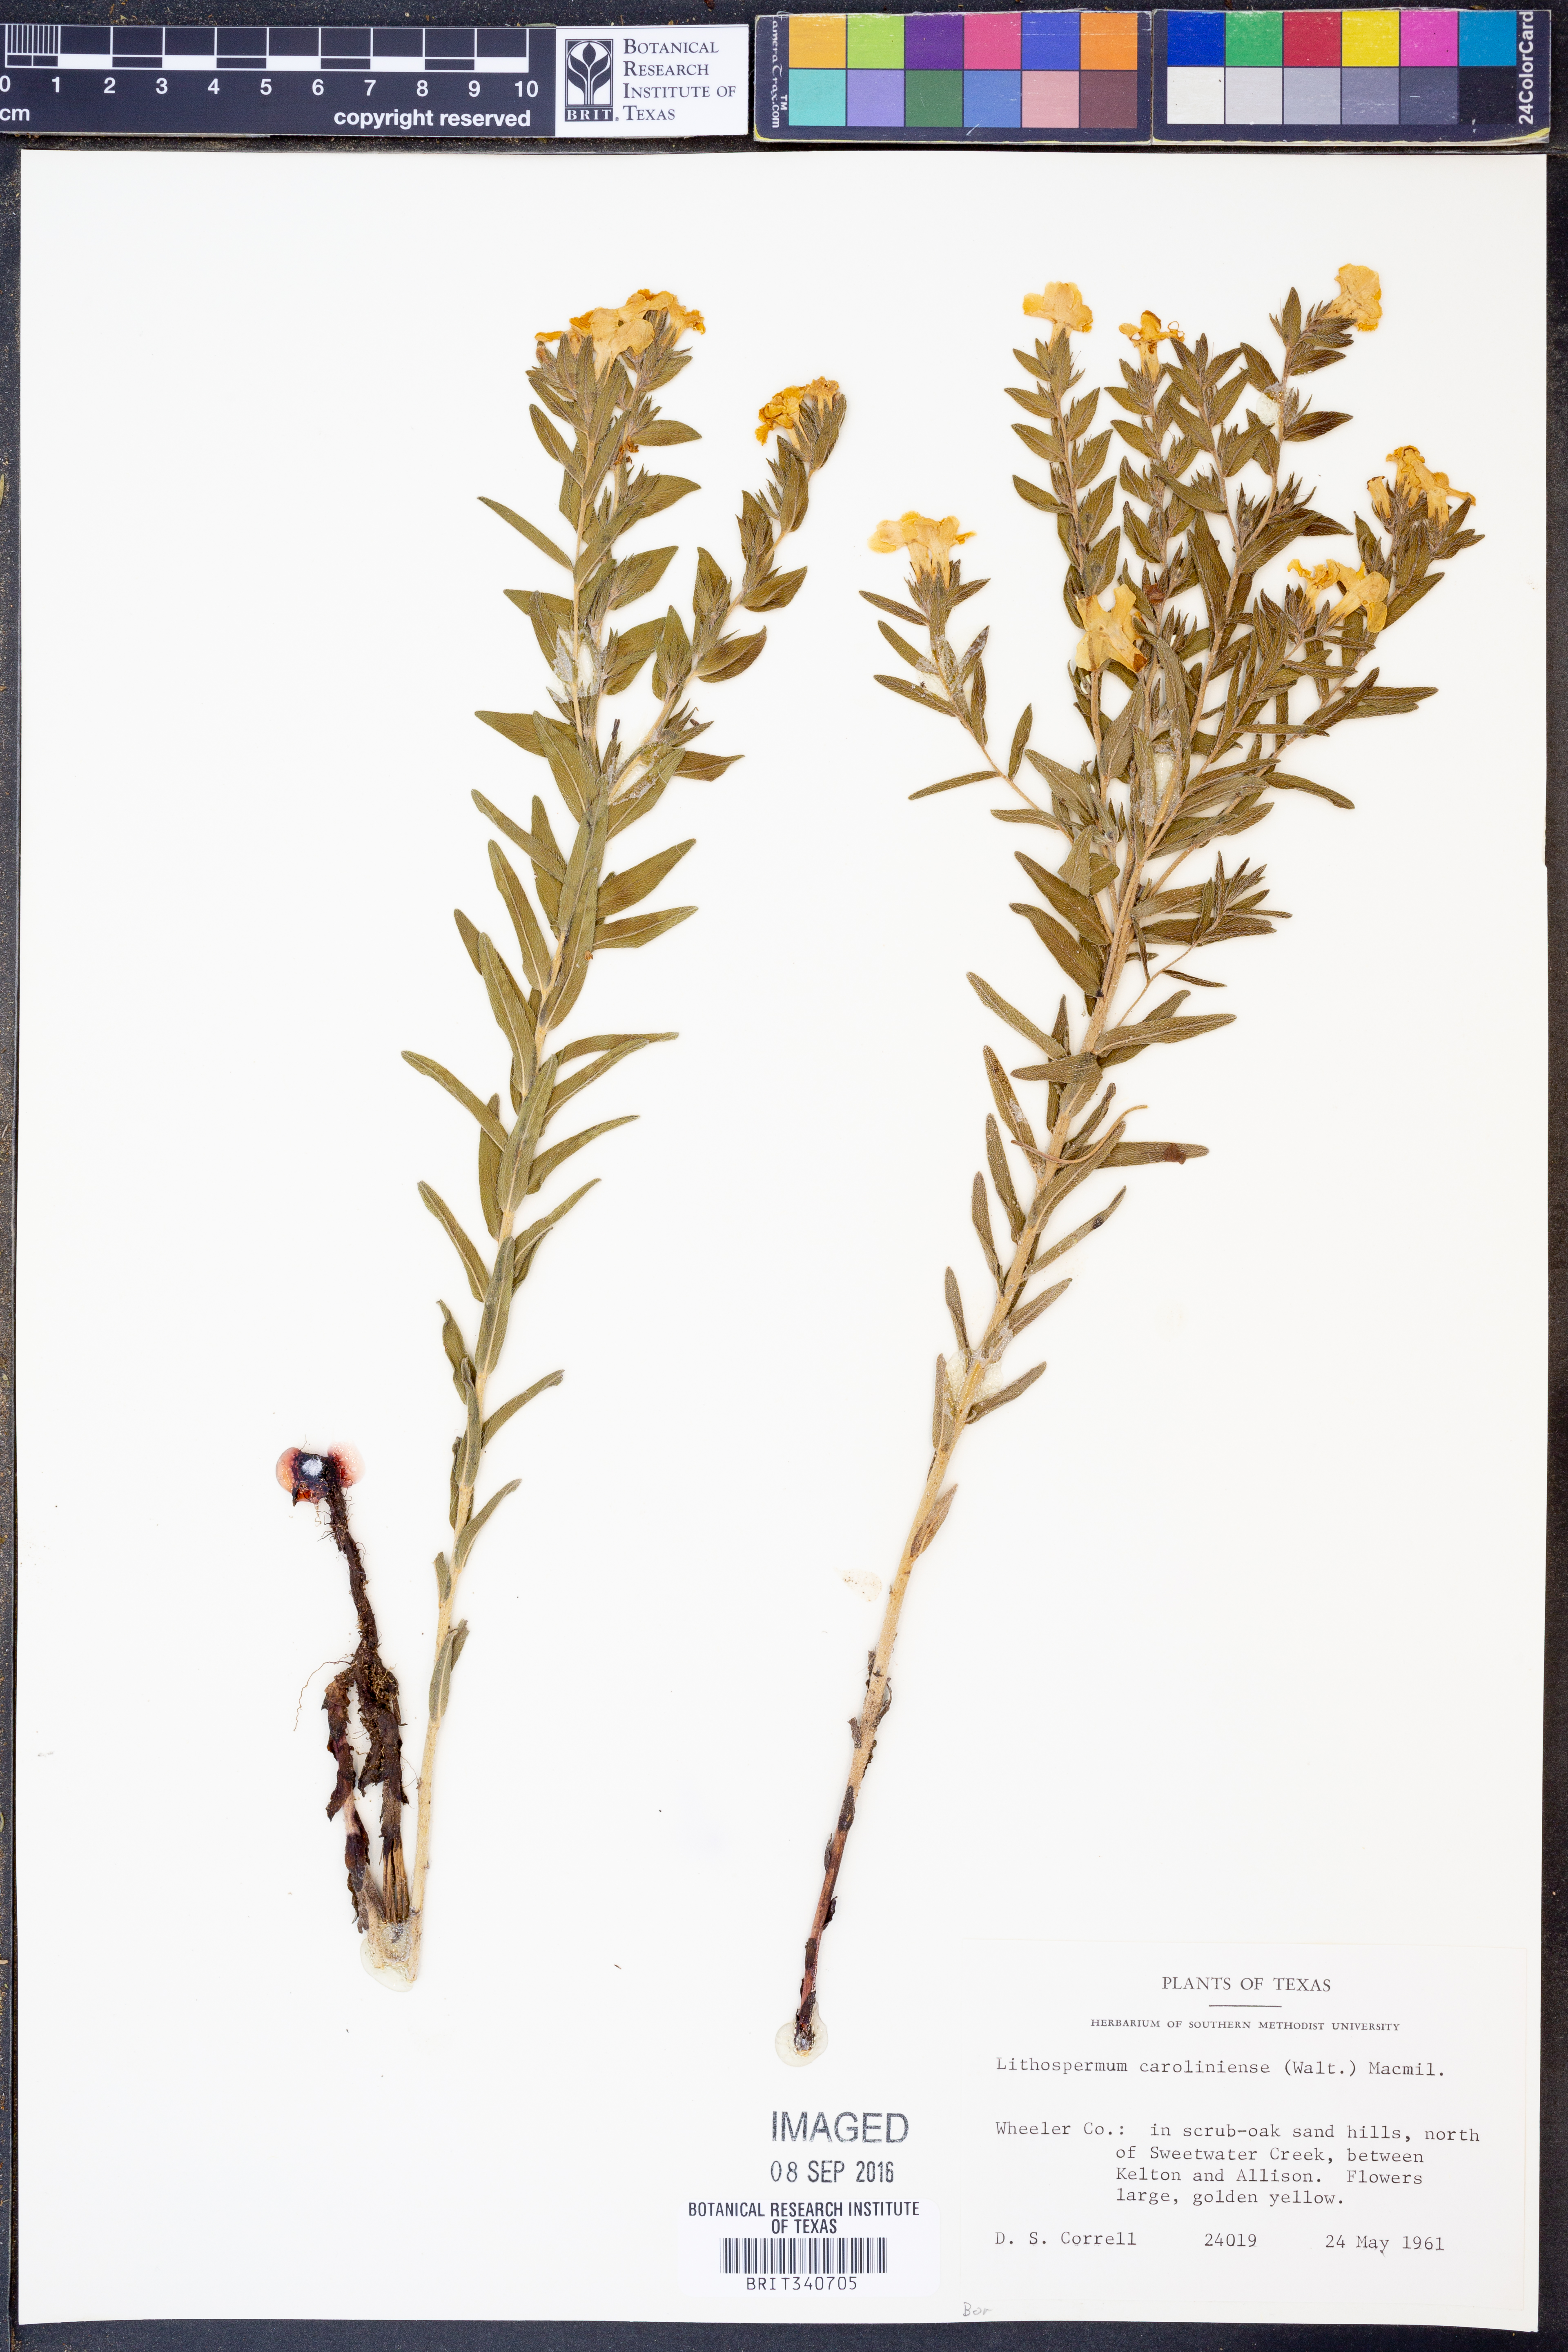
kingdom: Plantae
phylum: Tracheophyta
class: Magnoliopsida
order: Boraginales
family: Boraginaceae
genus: Lithospermum
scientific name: Lithospermum caroliniense
